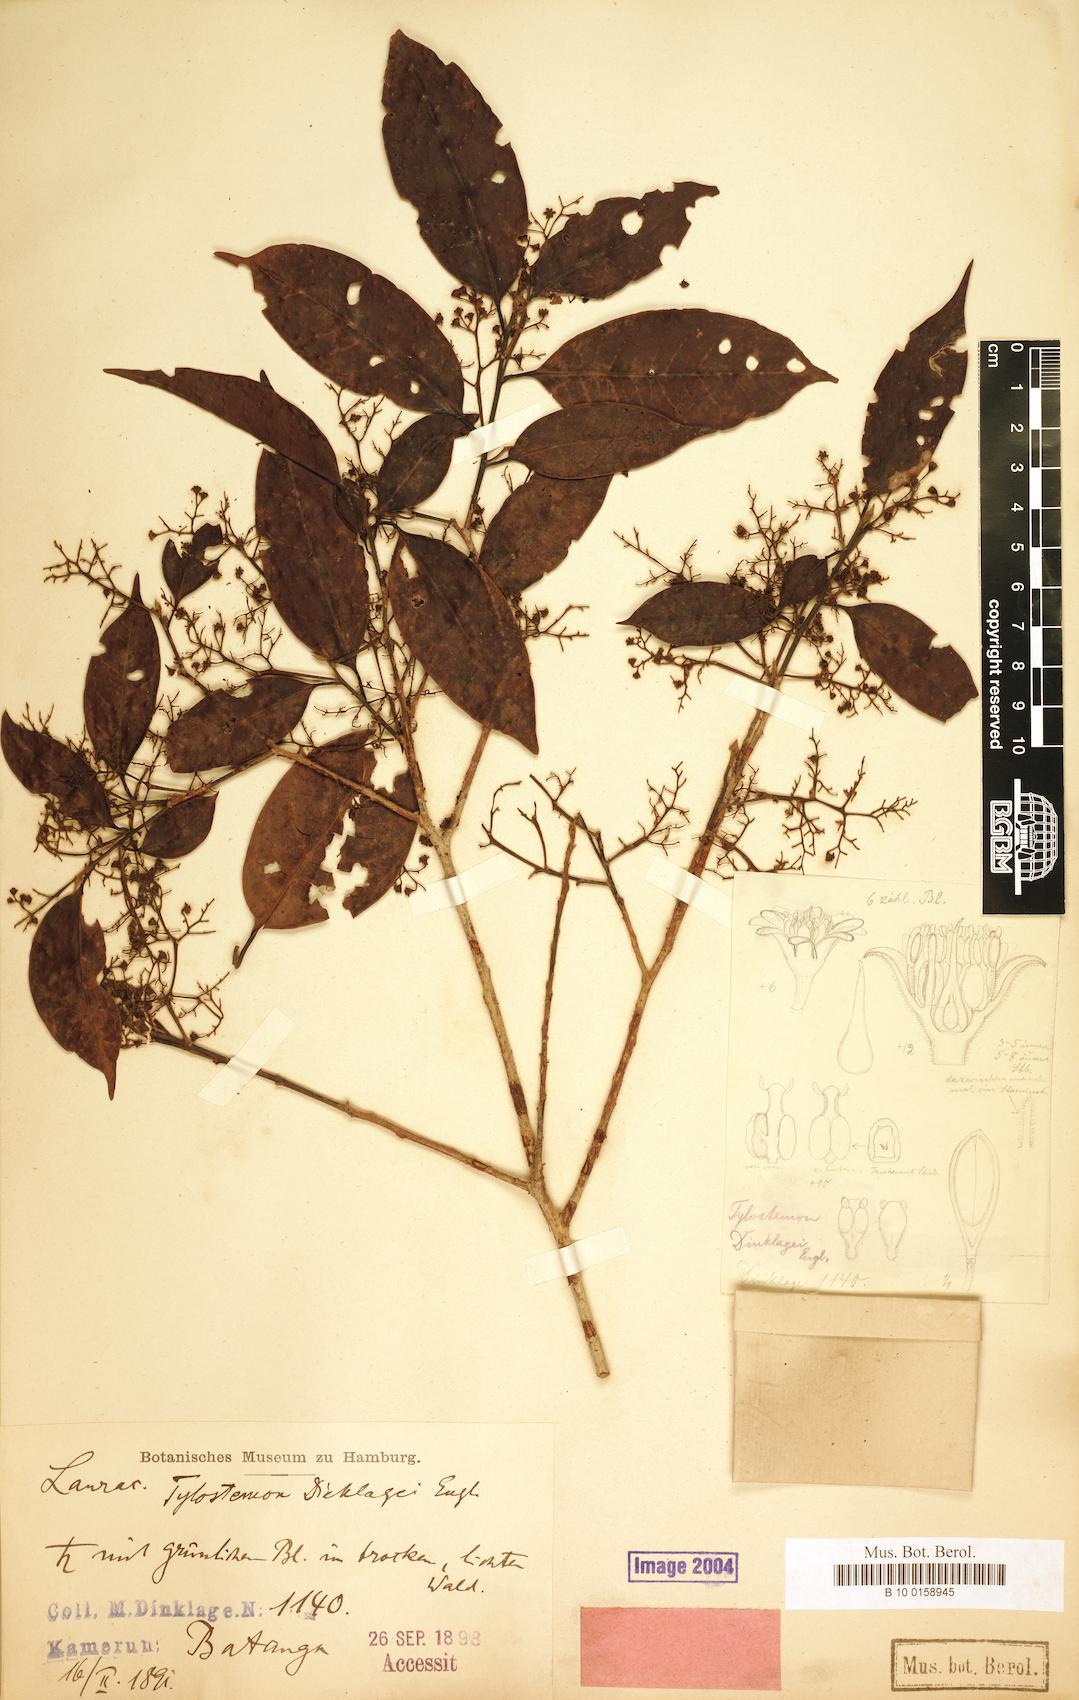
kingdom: Plantae
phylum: Tracheophyta
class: Magnoliopsida
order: Laurales
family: Lauraceae
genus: Beilschmiedia
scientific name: Beilschmiedia dinklagei
